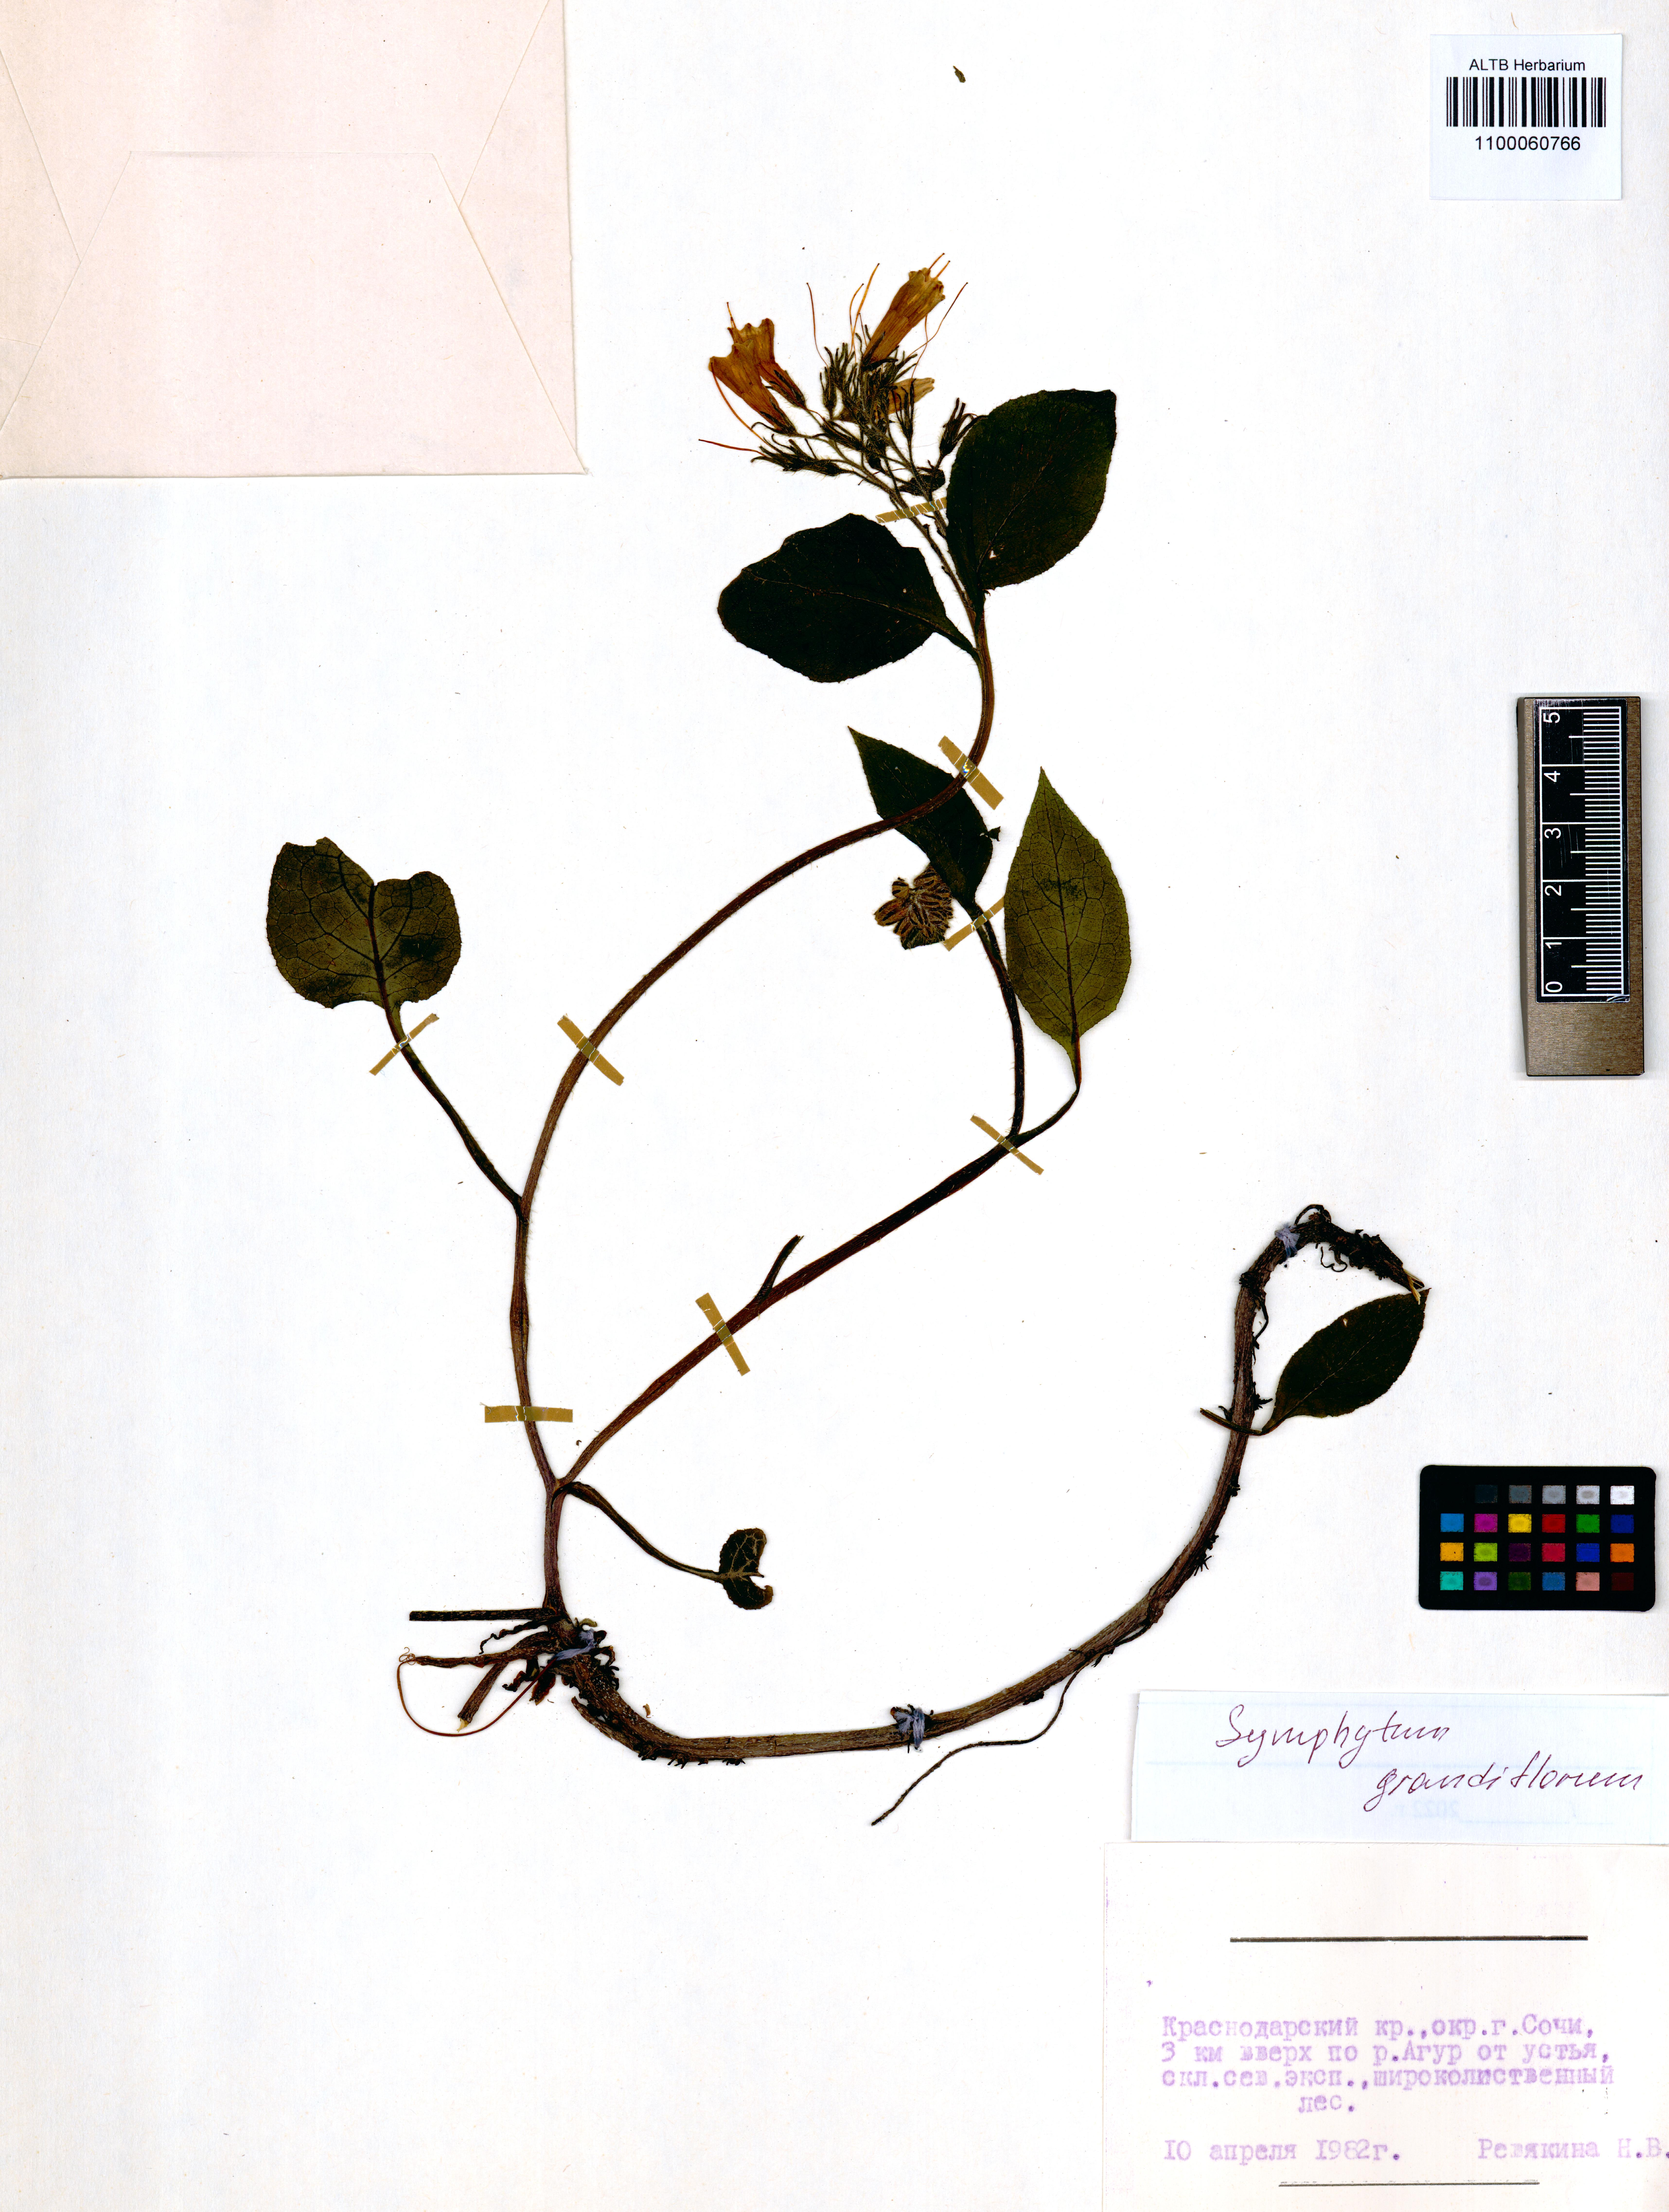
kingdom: Plantae
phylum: Tracheophyta
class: Magnoliopsida
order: Boraginales
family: Boraginaceae
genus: Symphytum
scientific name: Symphytum grandiflorum
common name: Creeping comfrey
